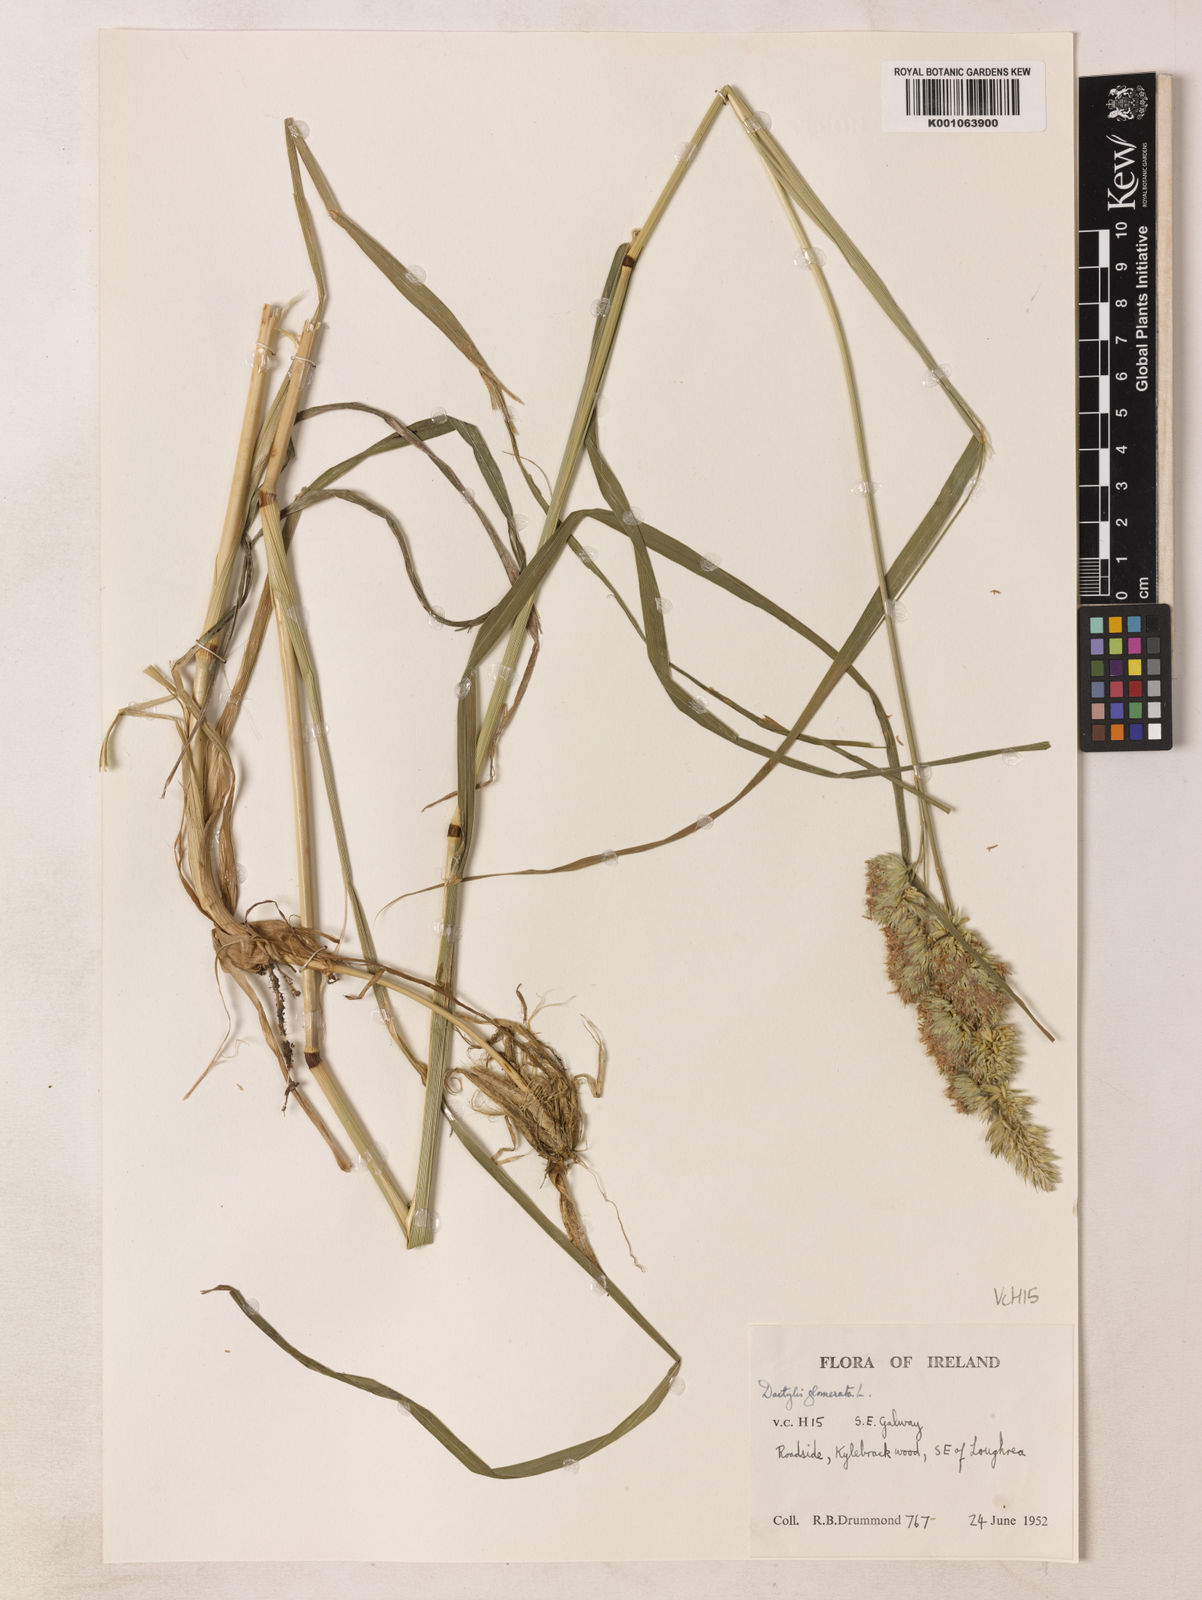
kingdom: Plantae
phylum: Tracheophyta
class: Liliopsida
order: Poales
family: Poaceae
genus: Dactylis
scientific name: Dactylis glomerata
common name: Orchardgrass
